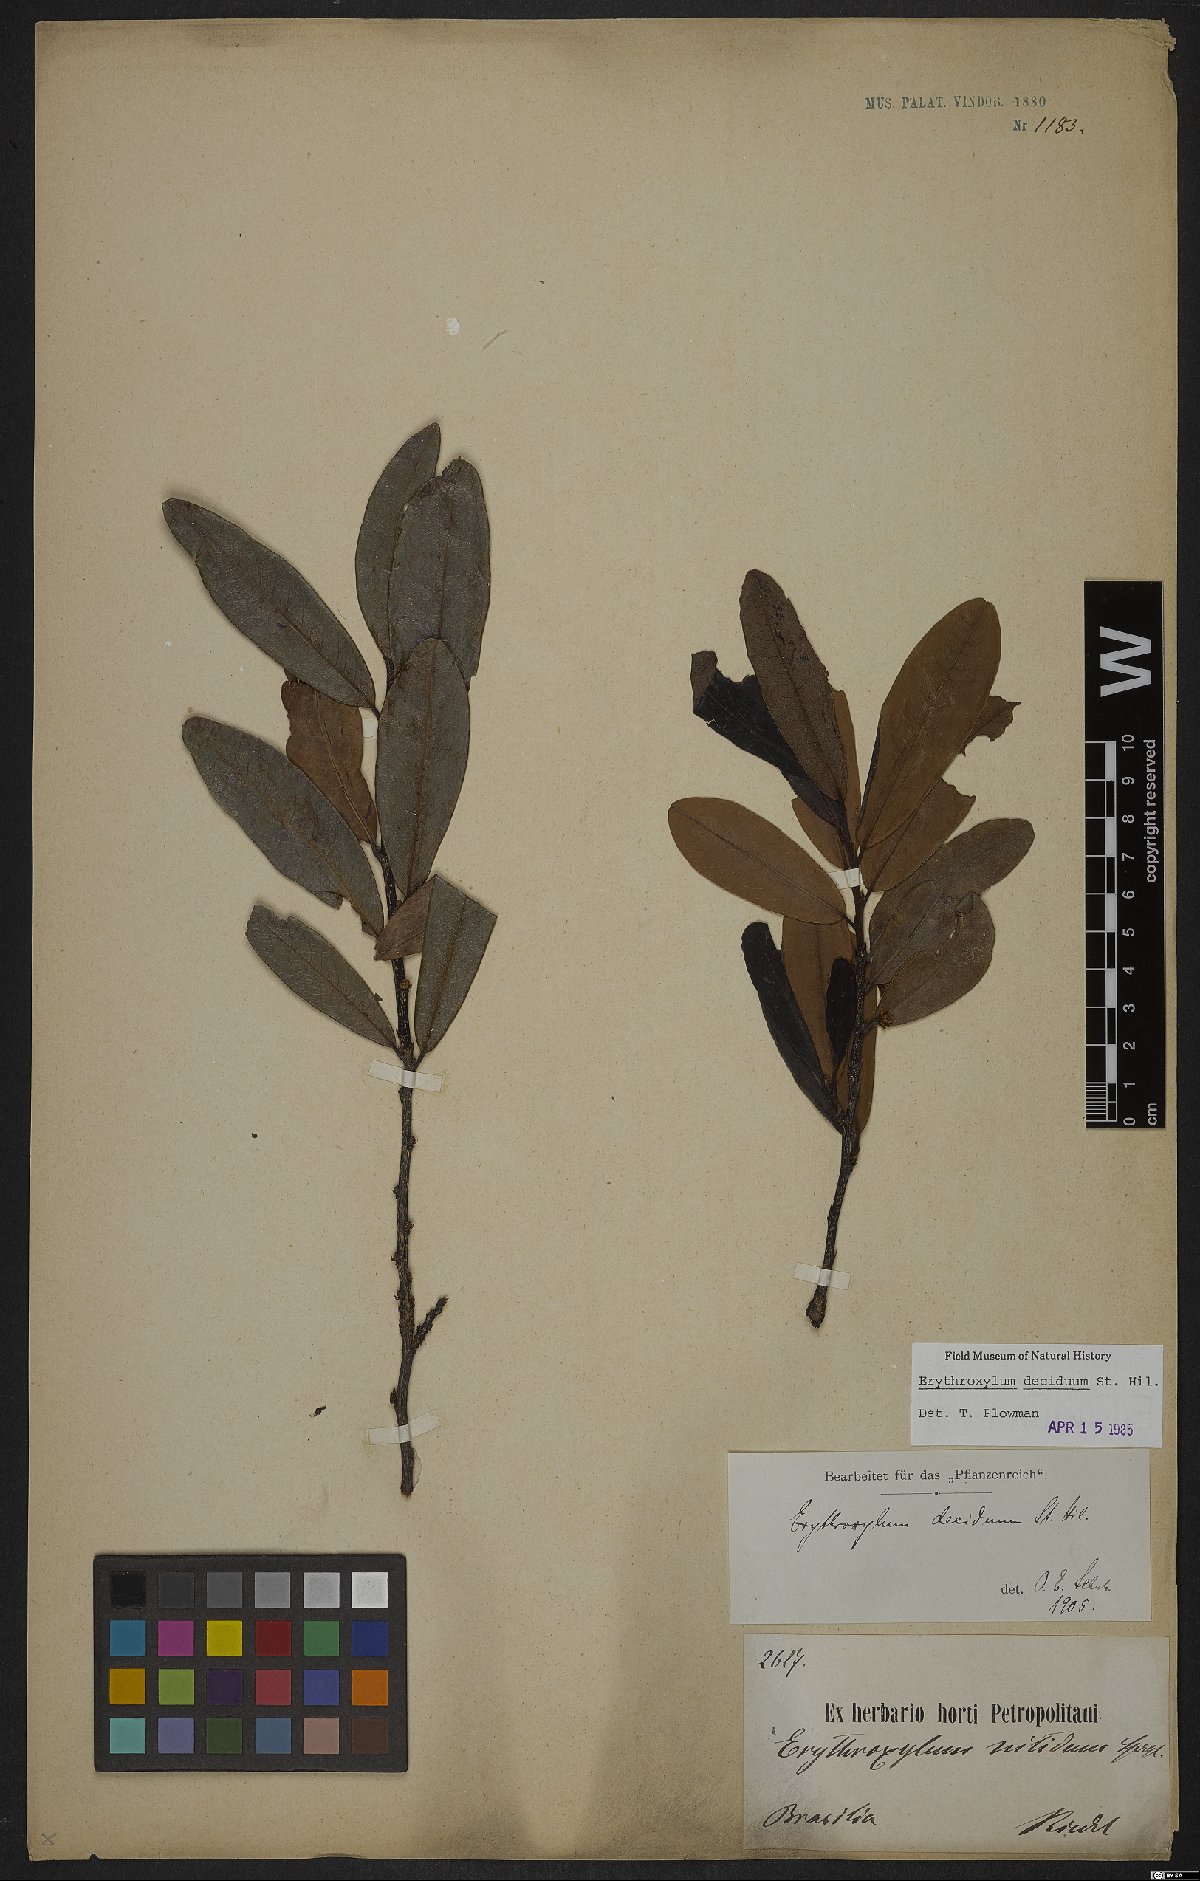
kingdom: Plantae
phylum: Tracheophyta
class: Magnoliopsida
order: Malpighiales
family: Erythroxylaceae
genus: Erythroxylum
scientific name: Erythroxylum deciduum
